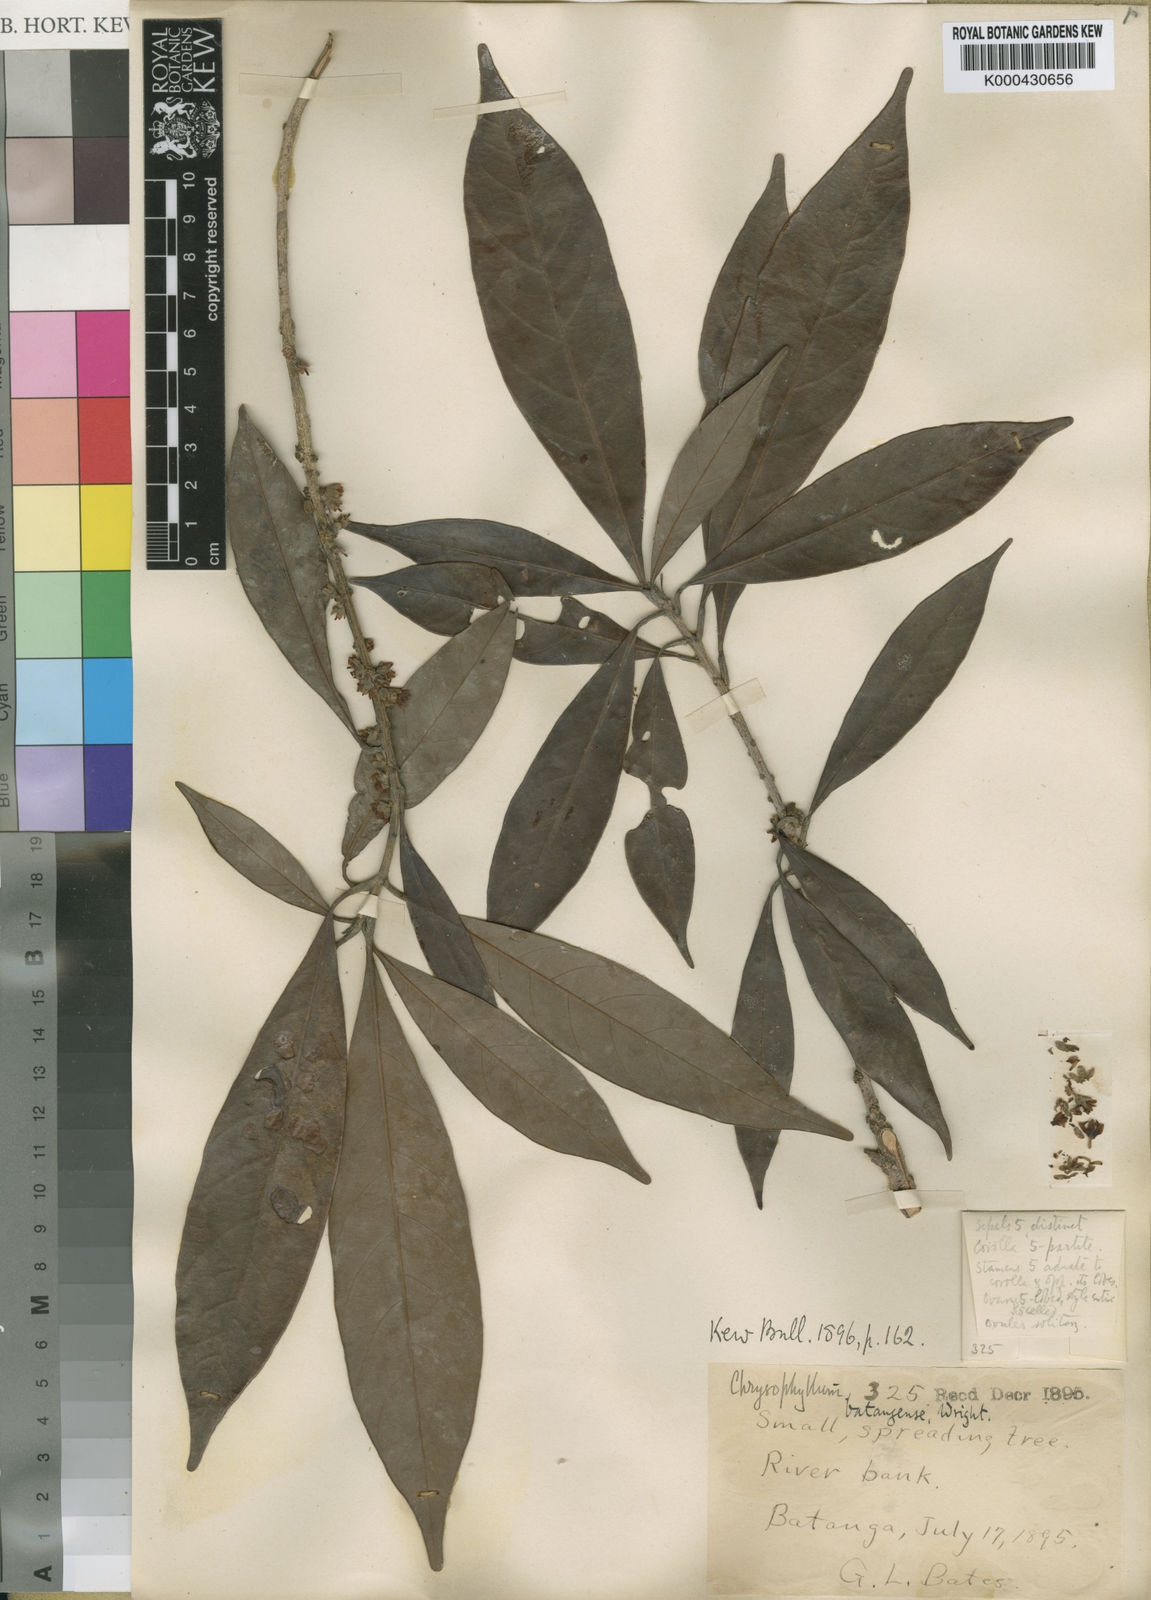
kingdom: Plantae
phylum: Tracheophyta
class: Magnoliopsida
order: Ericales
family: Sapotaceae
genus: Synsepalum
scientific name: Synsepalum
